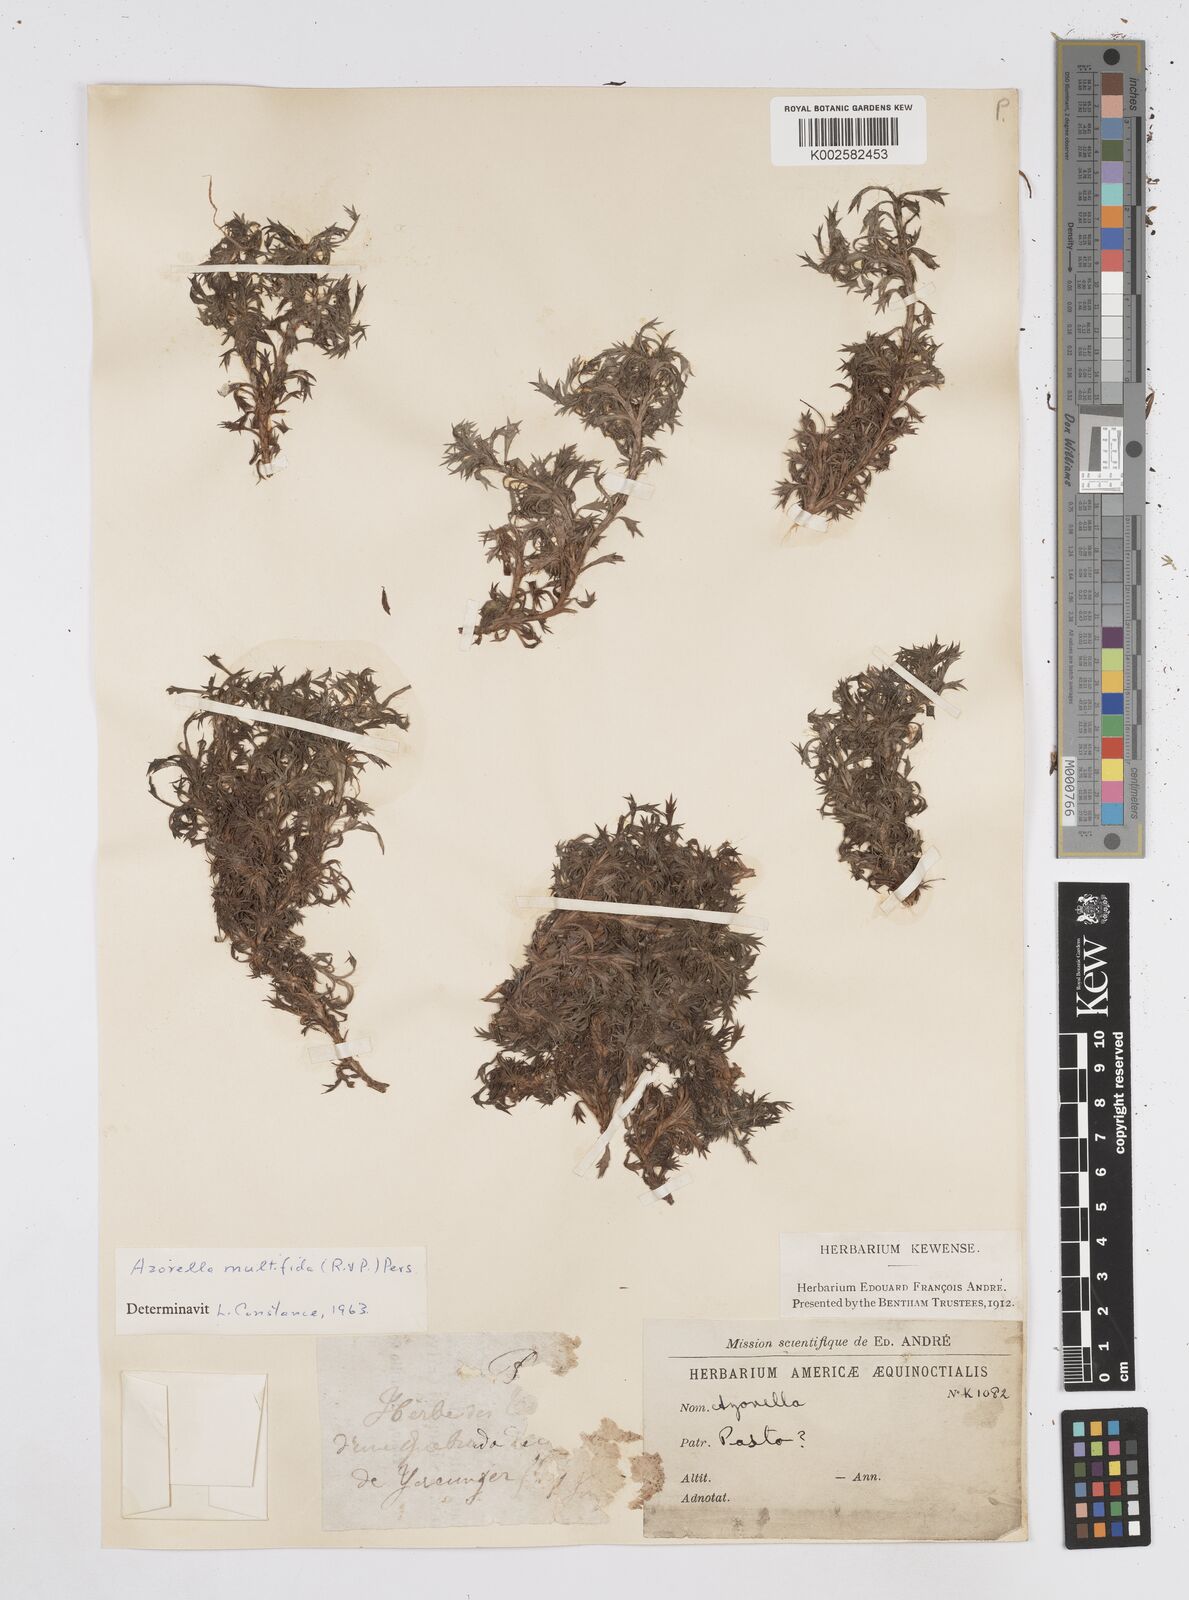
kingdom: Plantae
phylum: Tracheophyta
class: Magnoliopsida
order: Apiales
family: Apiaceae
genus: Azorella
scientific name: Azorella
